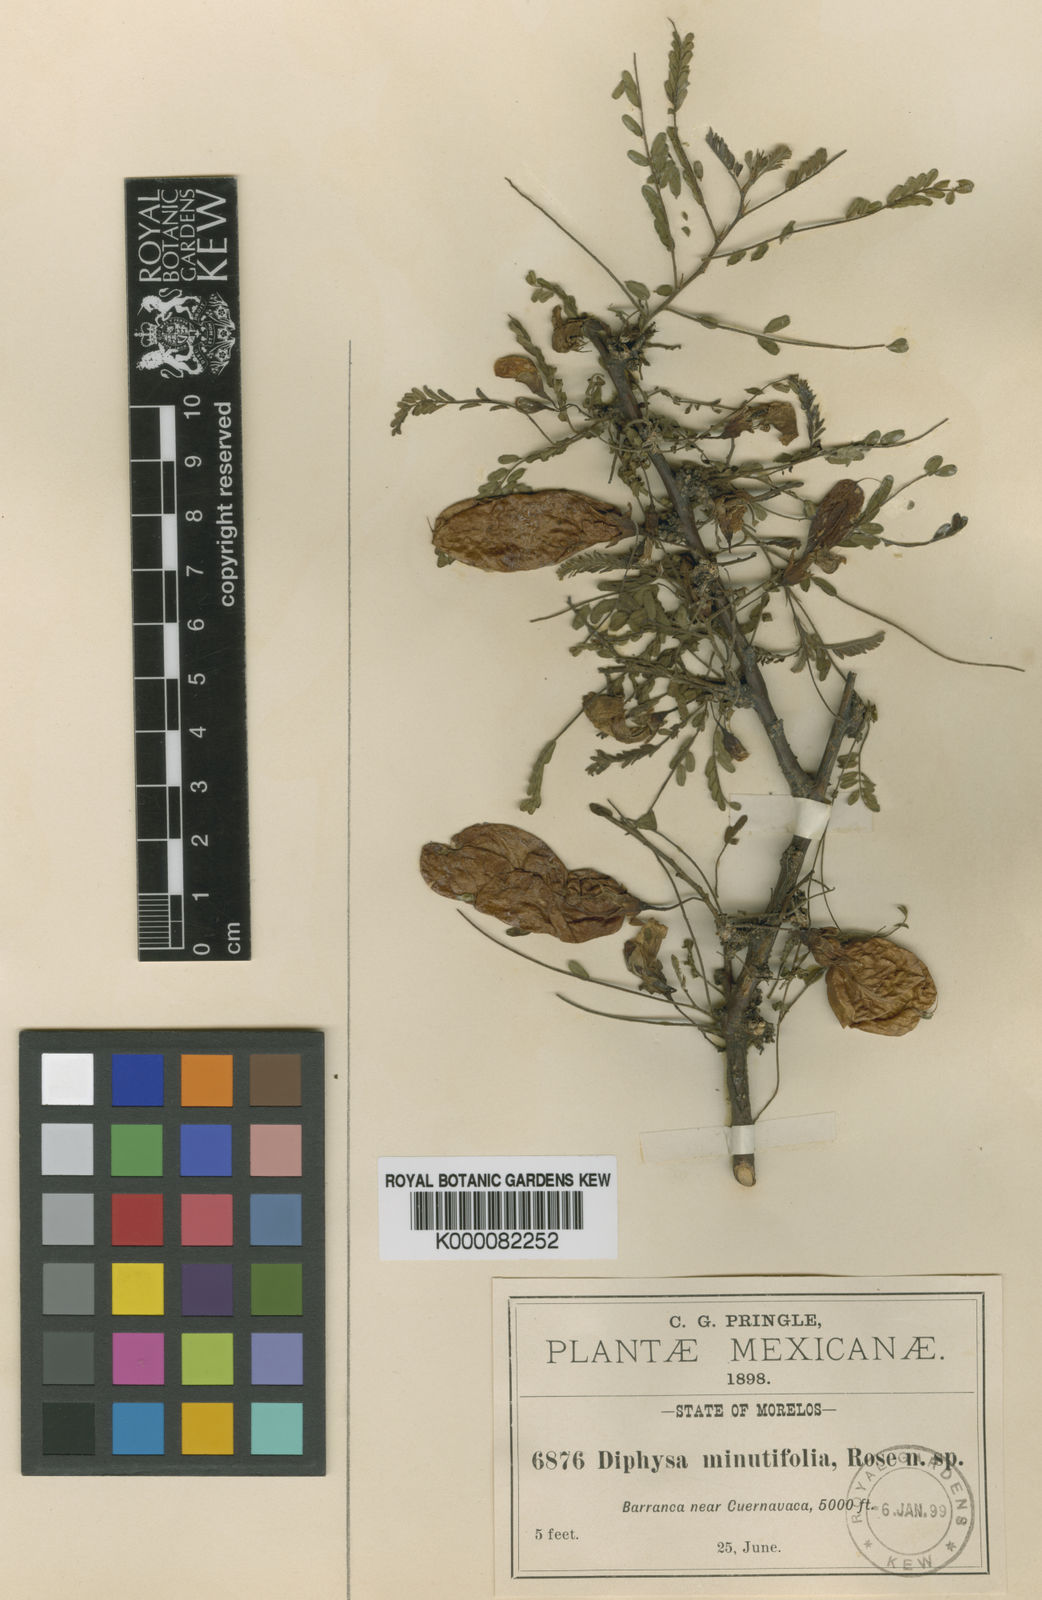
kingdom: Plantae
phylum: Tracheophyta
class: Magnoliopsida
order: Fabales
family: Fabaceae
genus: Diphysa
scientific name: Diphysa minutifolia
